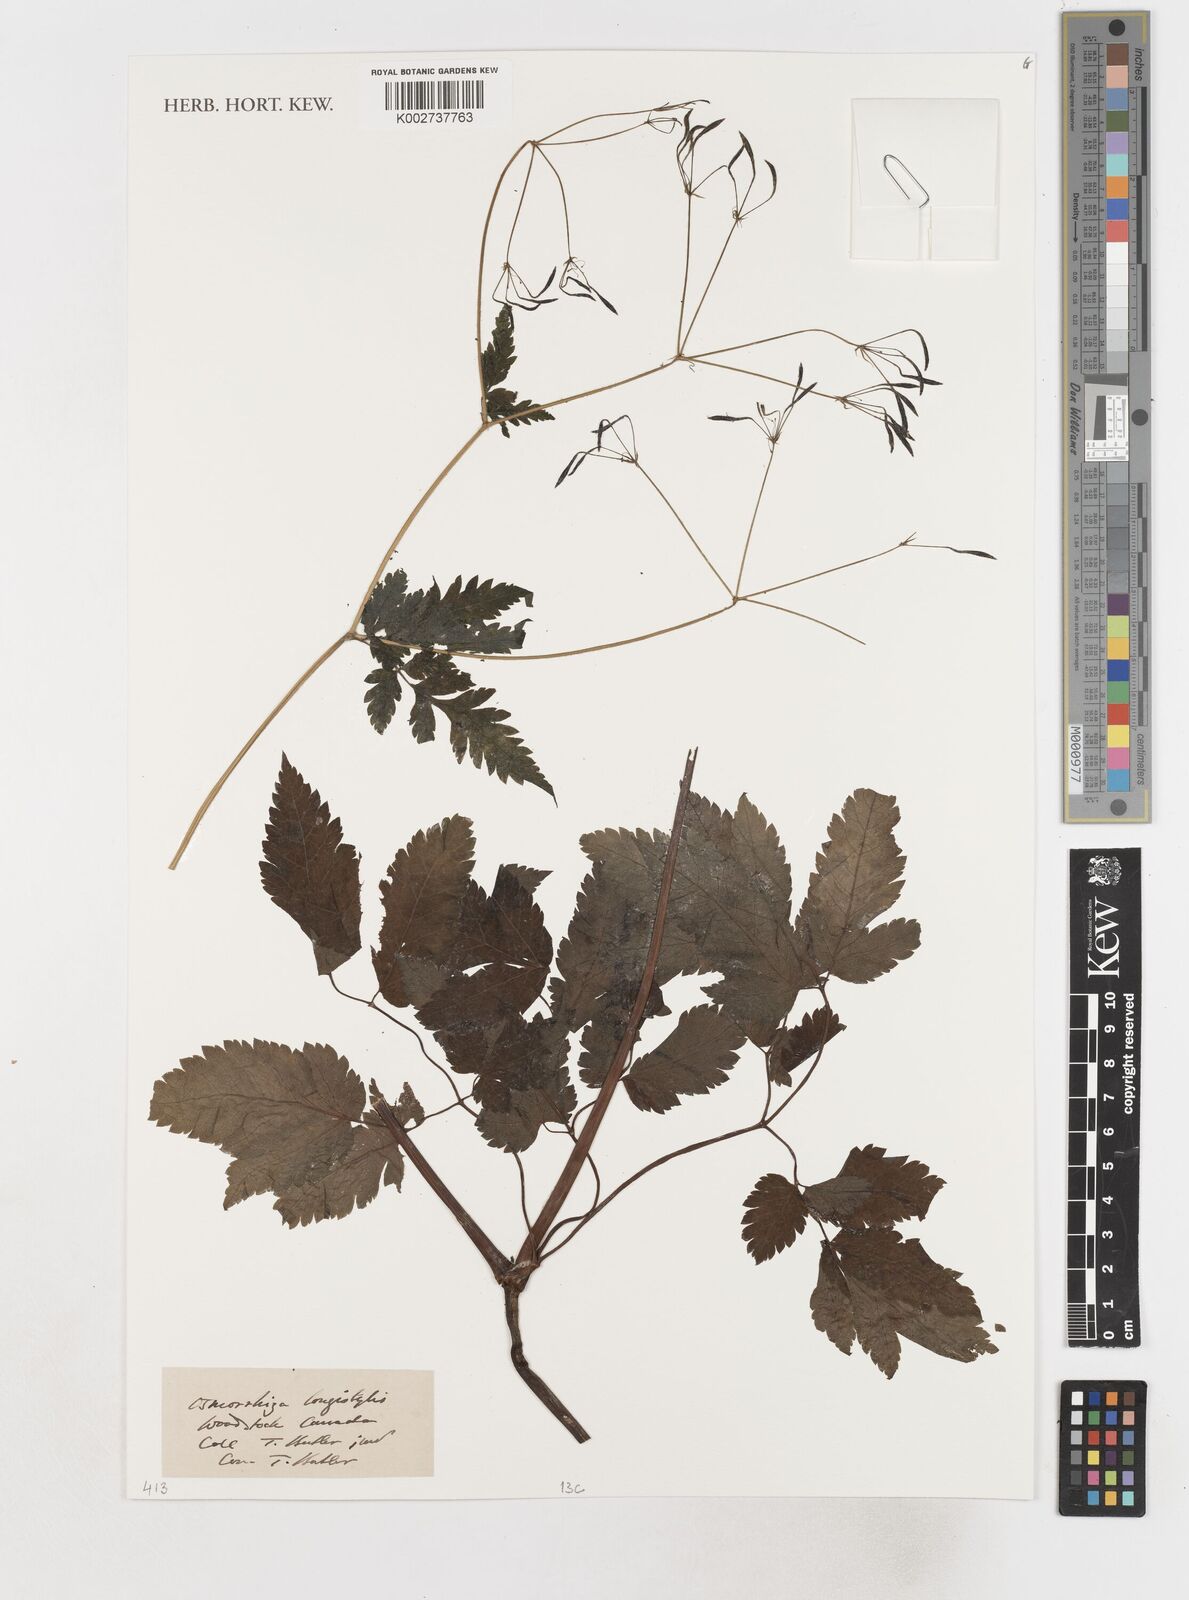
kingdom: Plantae
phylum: Tracheophyta
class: Magnoliopsida
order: Apiales
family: Apiaceae
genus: Osmorhiza
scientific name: Osmorhiza longistylis
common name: Smooth sweet cicely
